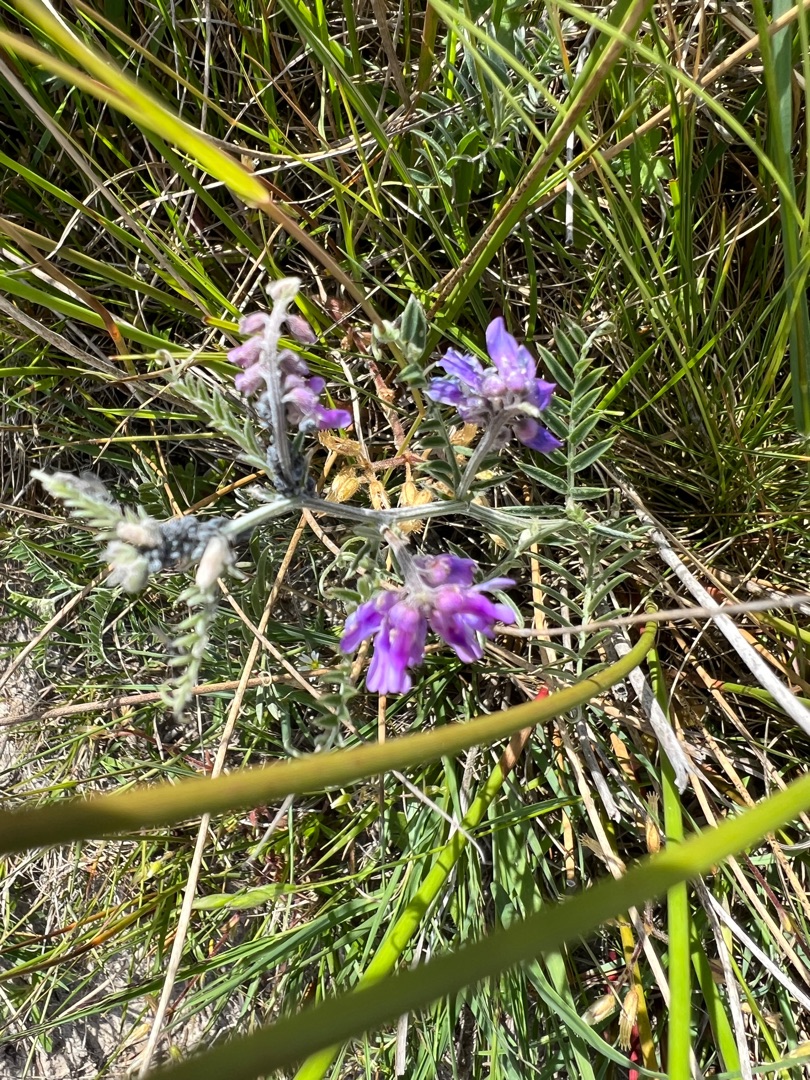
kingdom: Plantae
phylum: Tracheophyta
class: Magnoliopsida
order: Fabales
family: Fabaceae
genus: Vicia
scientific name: Vicia cracca
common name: Muse-vikke
